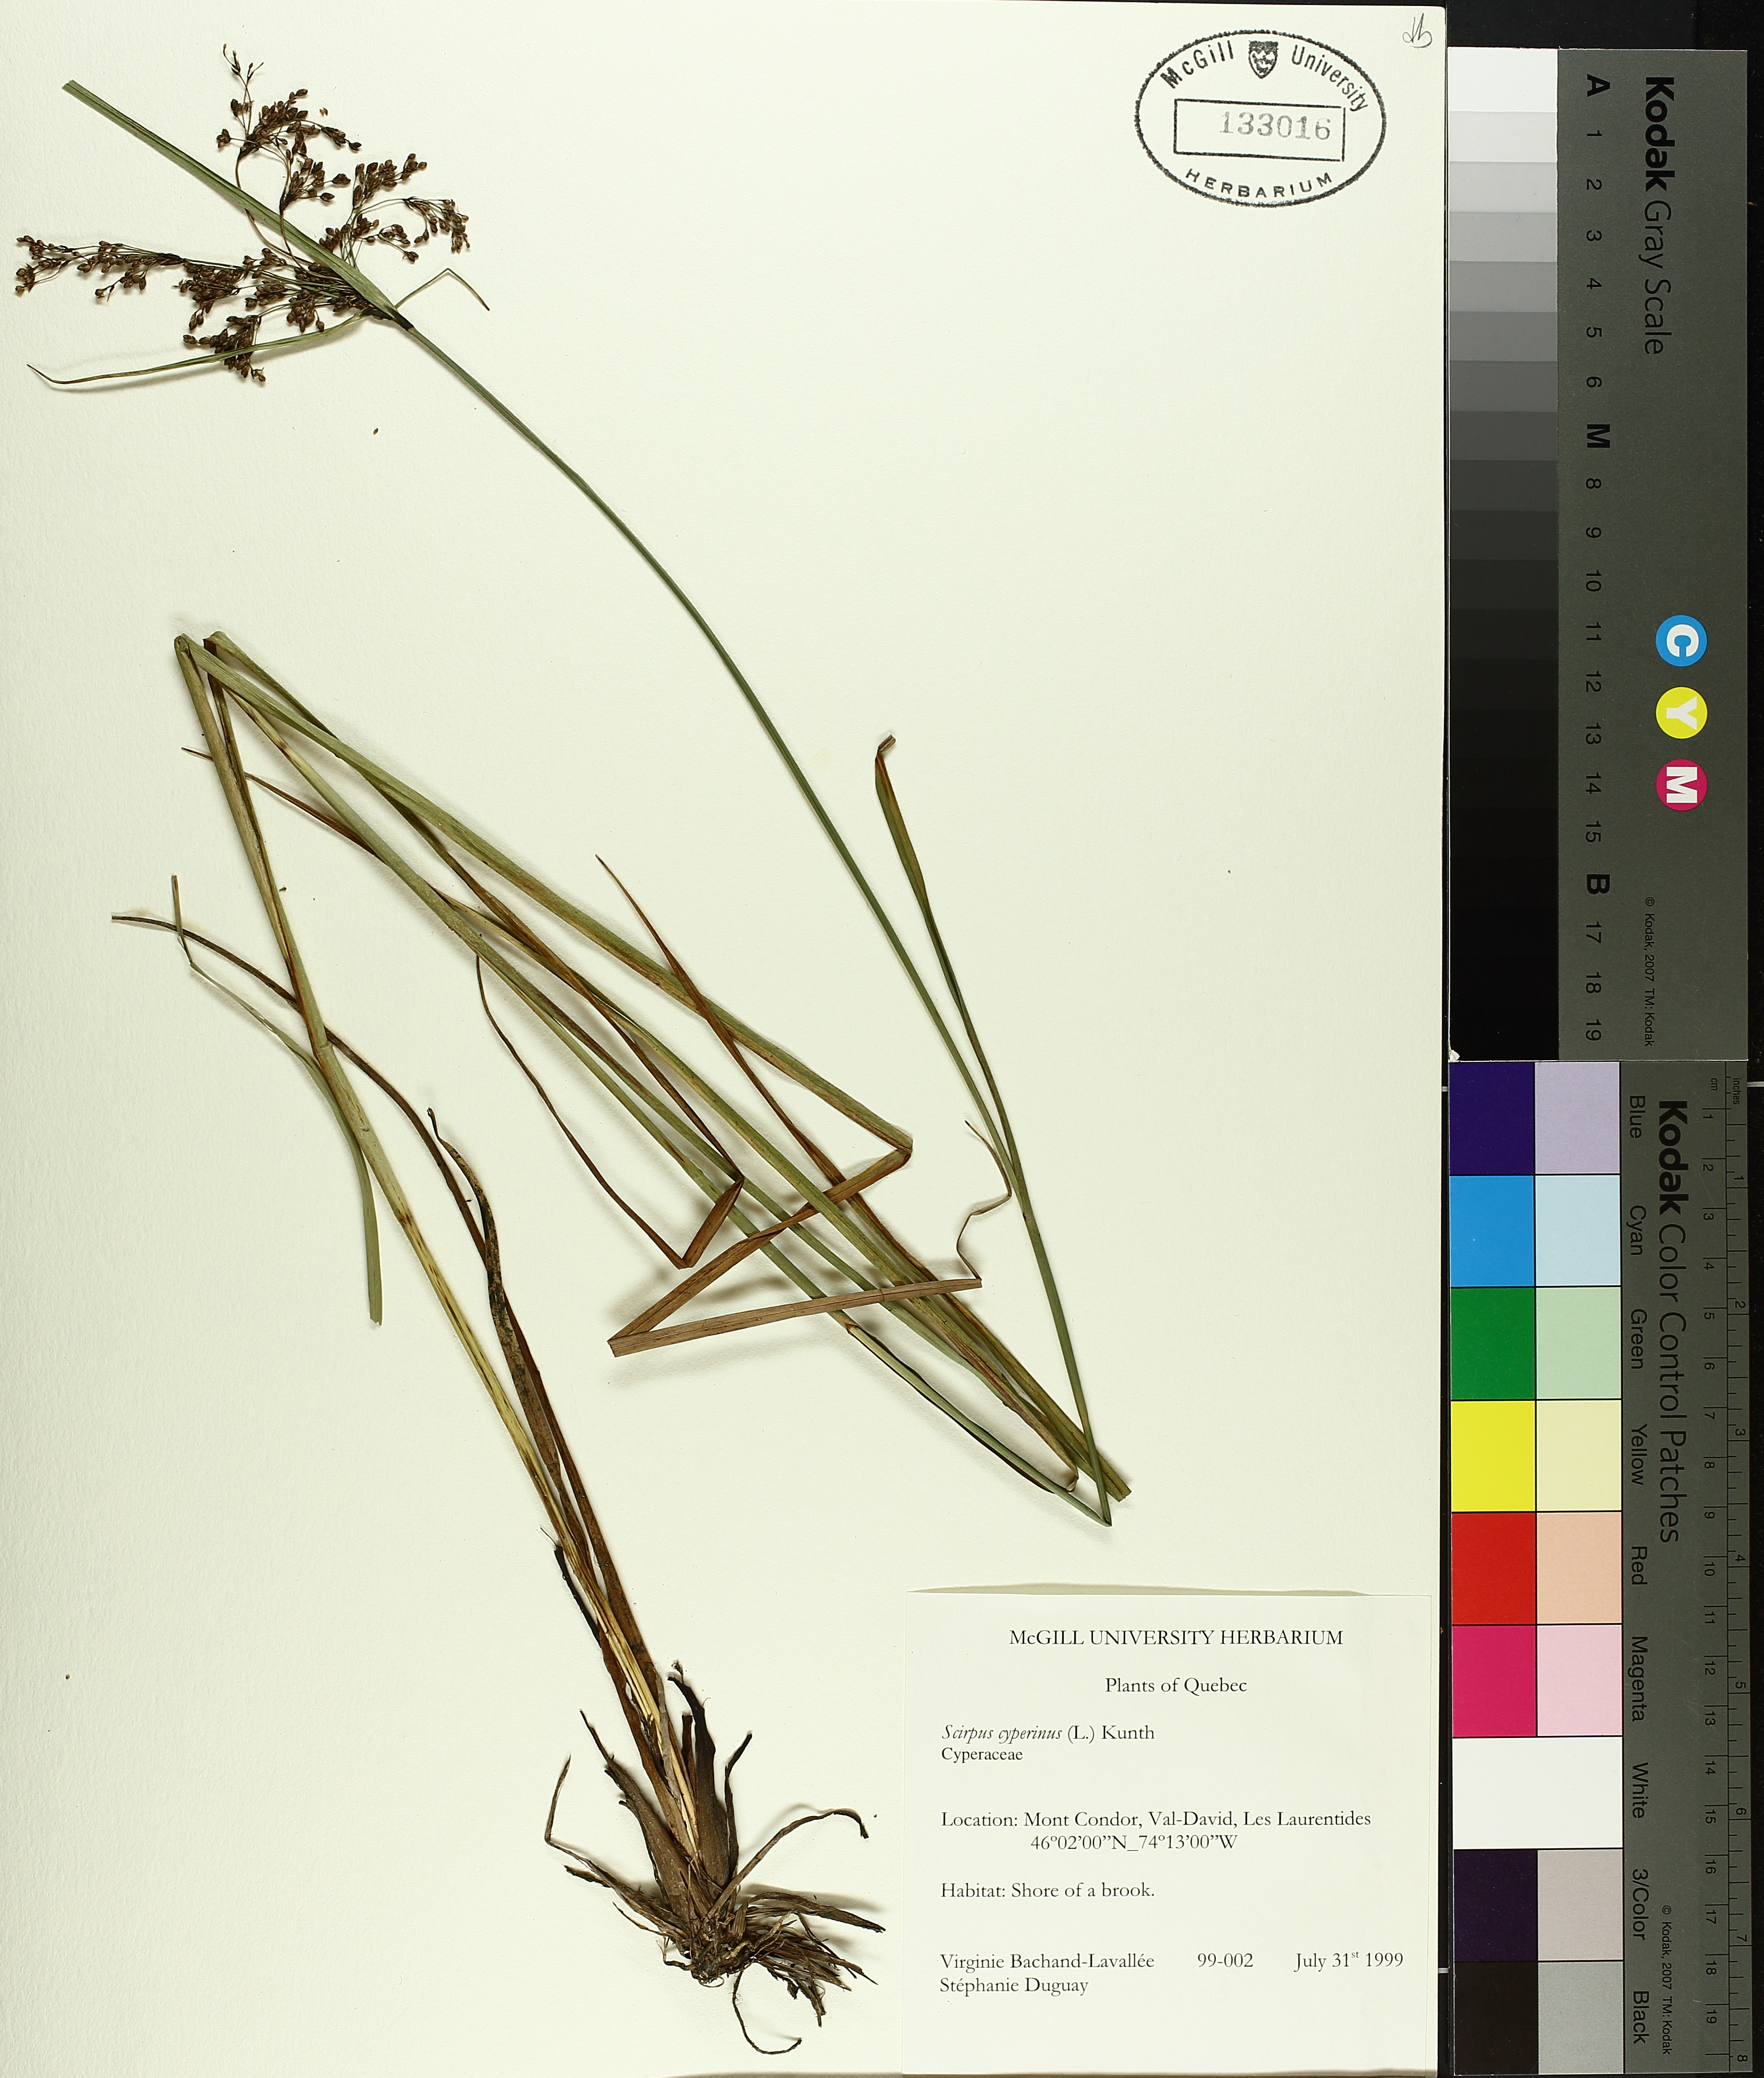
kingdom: Plantae
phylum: Tracheophyta
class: Liliopsida
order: Poales
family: Cyperaceae
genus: Scirpus
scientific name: Scirpus cyperinus
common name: Black-sheathed bulrush
